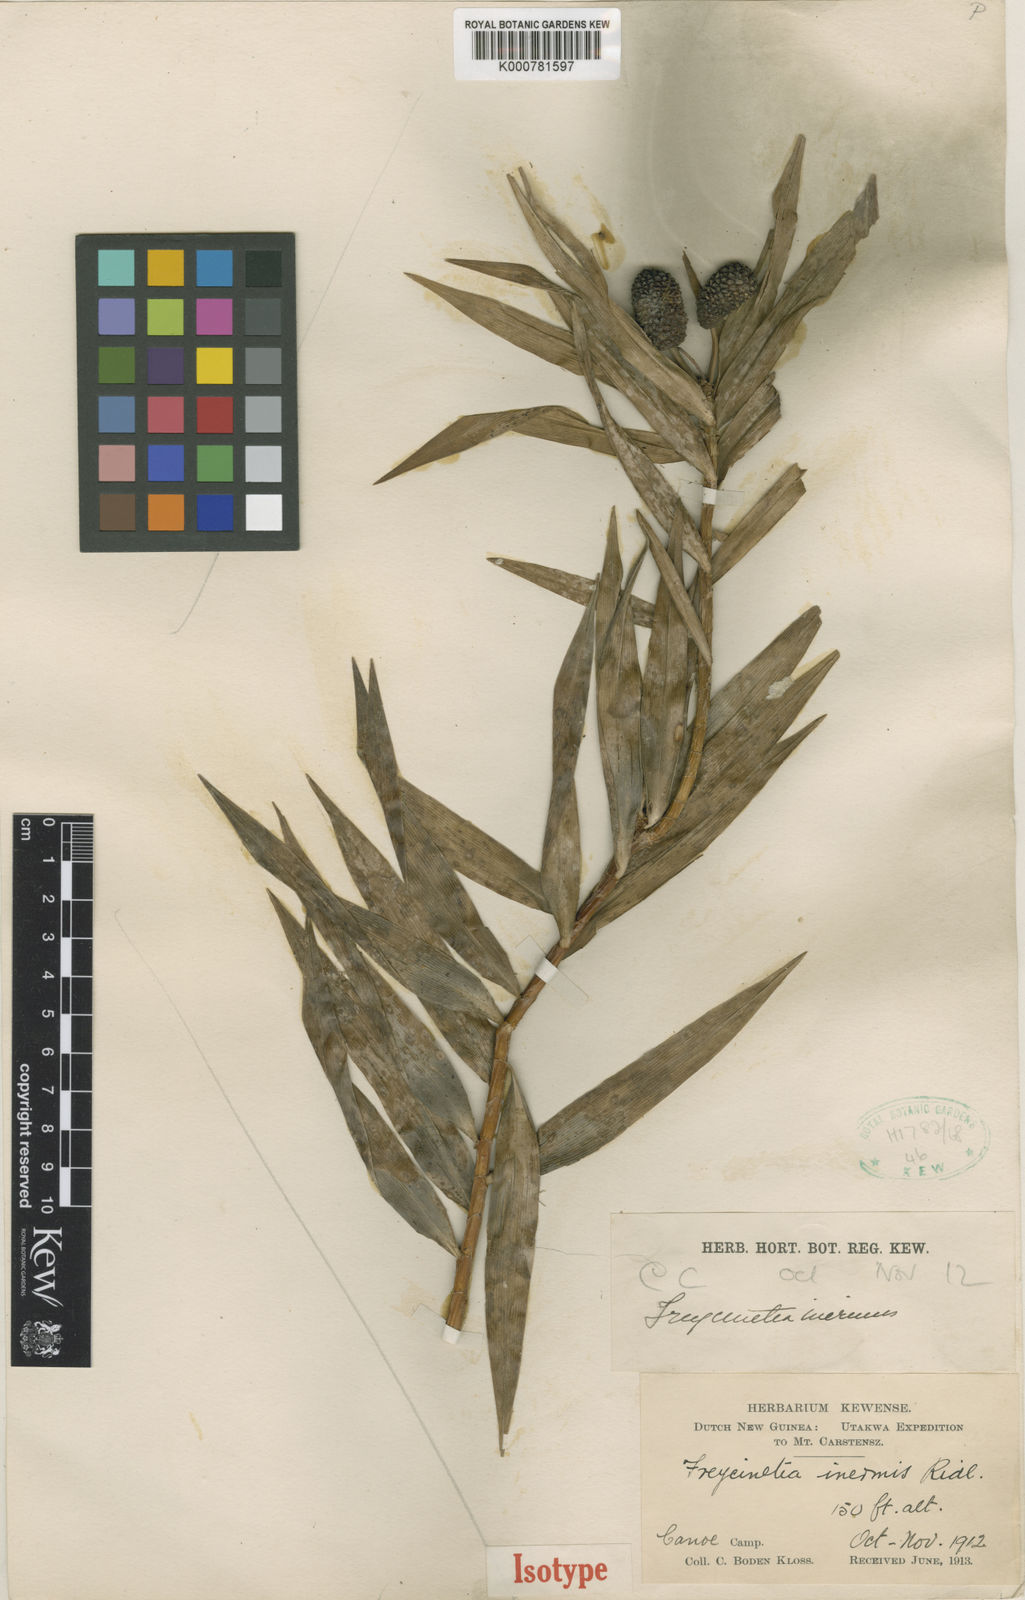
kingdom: Plantae
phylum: Tracheophyta
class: Liliopsida
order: Pandanales
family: Pandanaceae
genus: Freycinetia
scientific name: Freycinetia inermis
